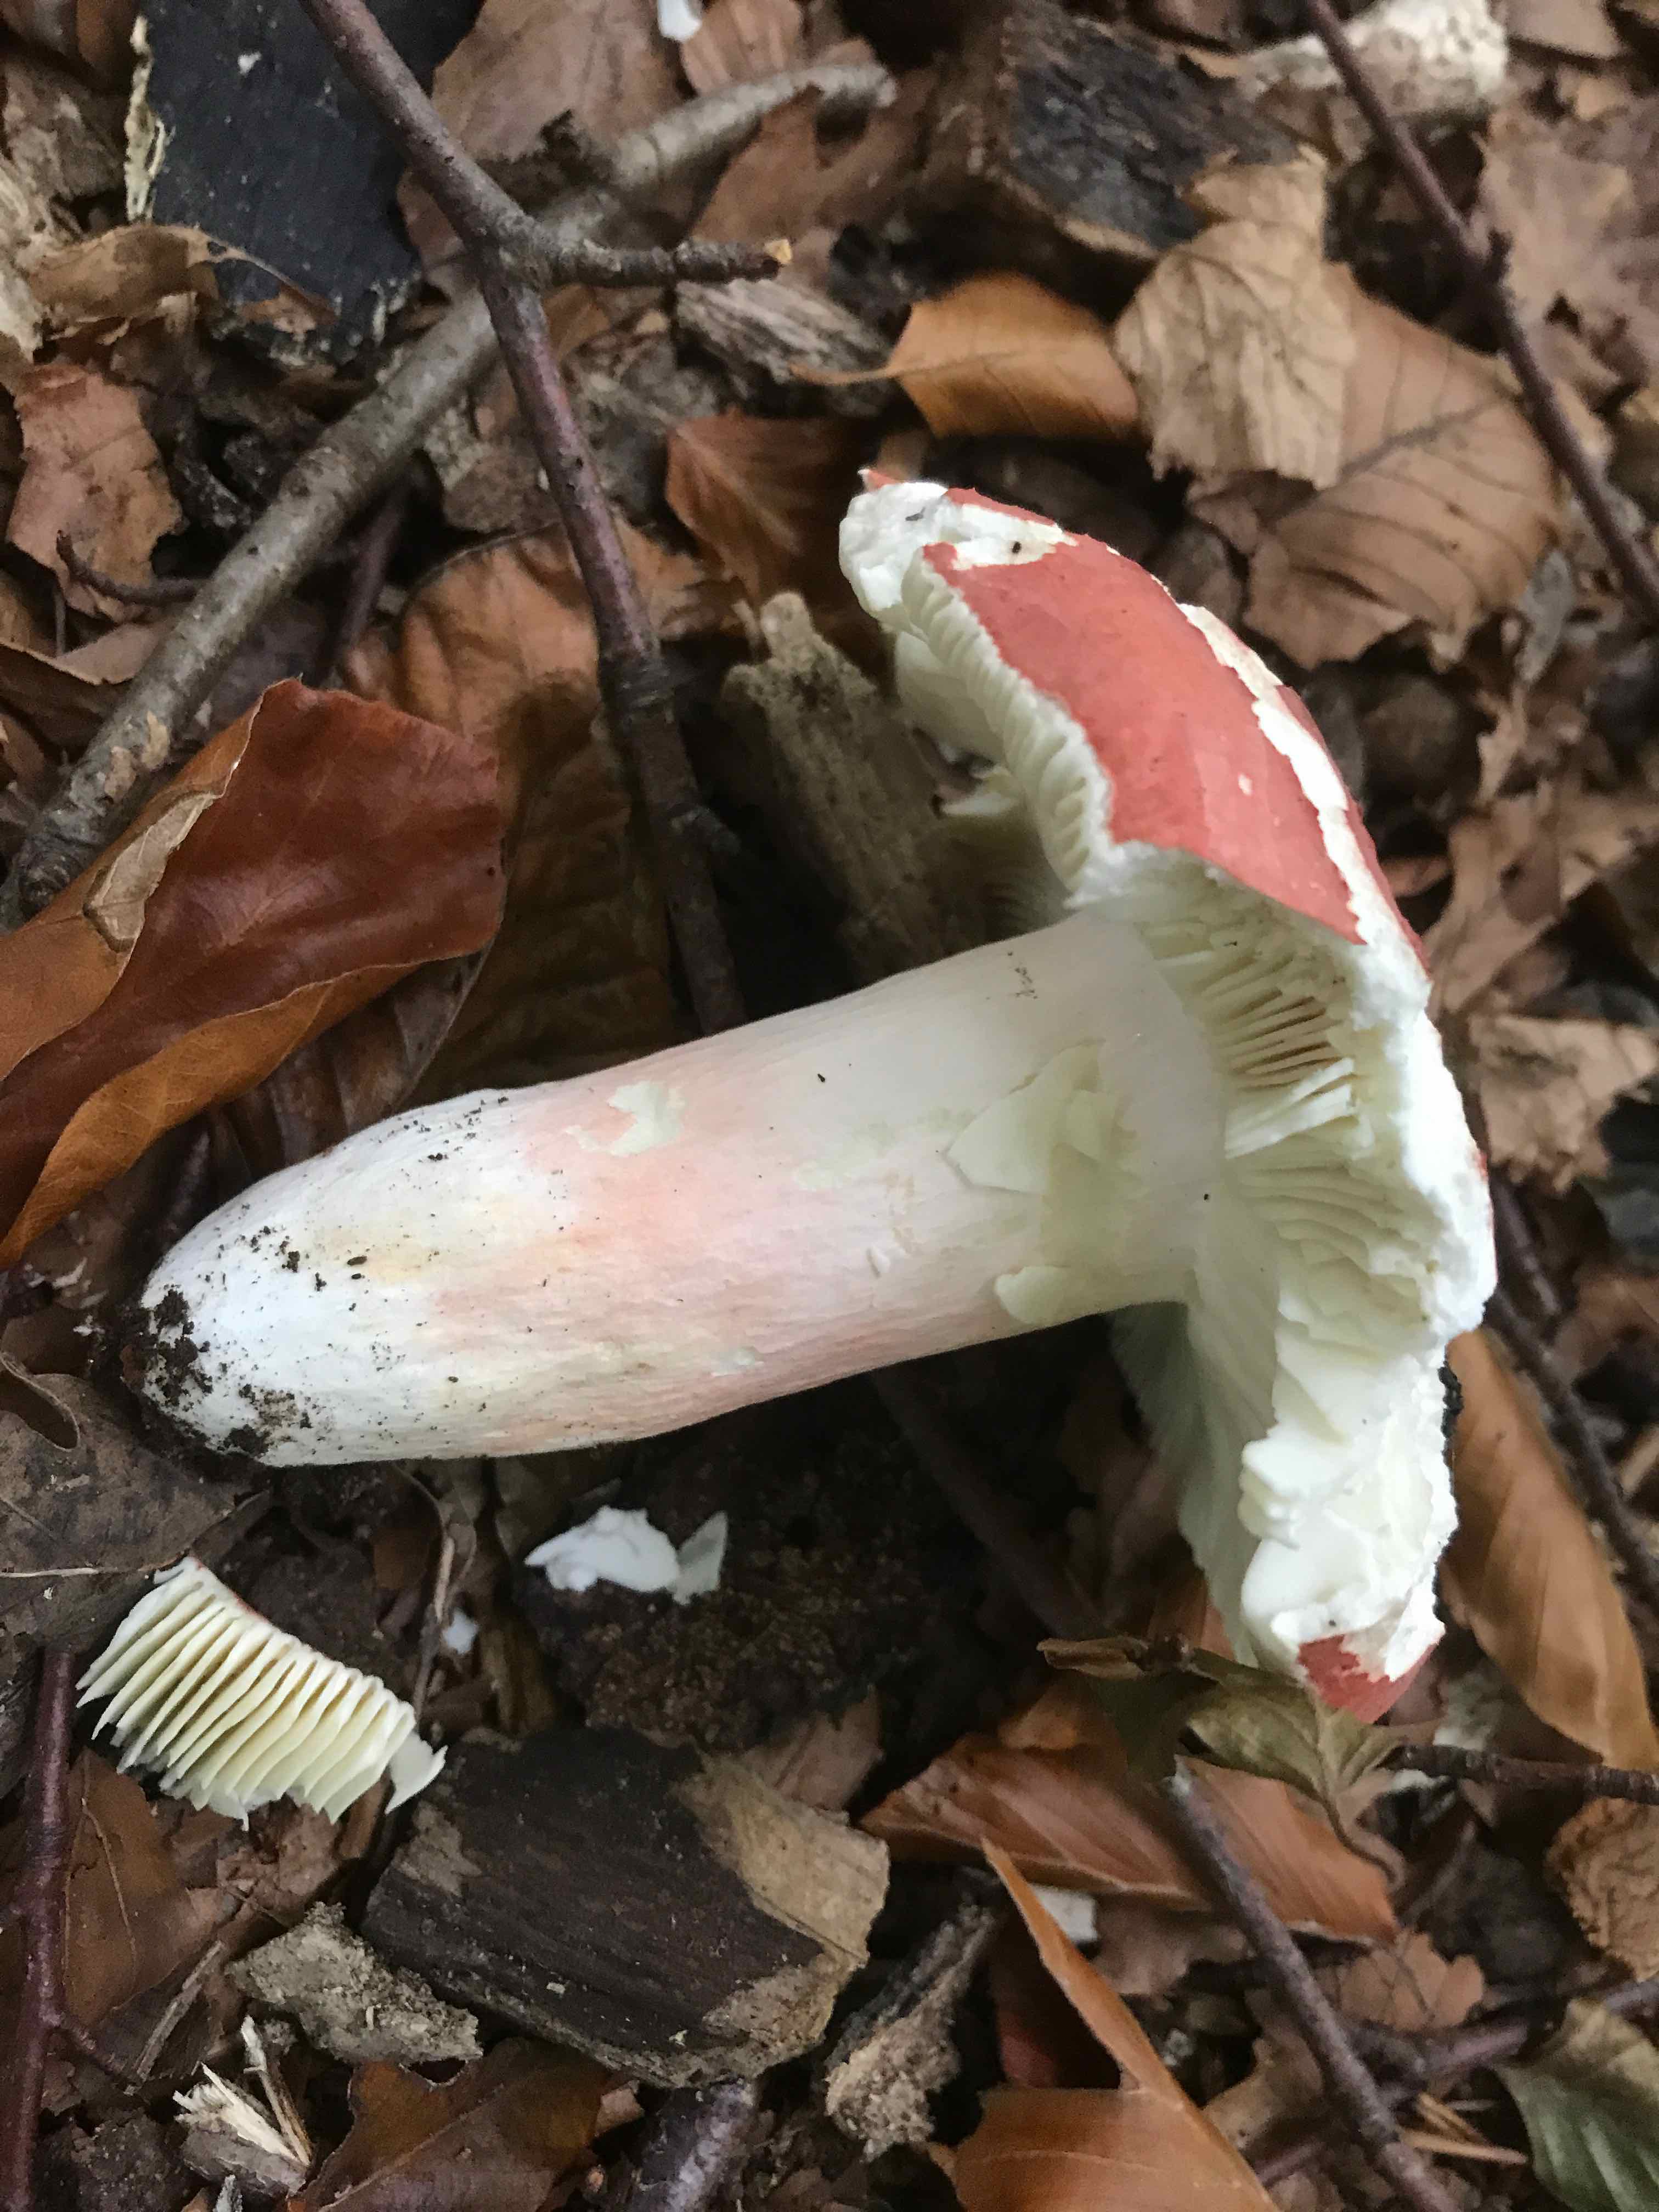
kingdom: Fungi
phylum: Basidiomycota
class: Agaricomycetes
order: Russulales
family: Russulaceae
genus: Russula
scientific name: Russula rosea
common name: fastkødet skørhat
